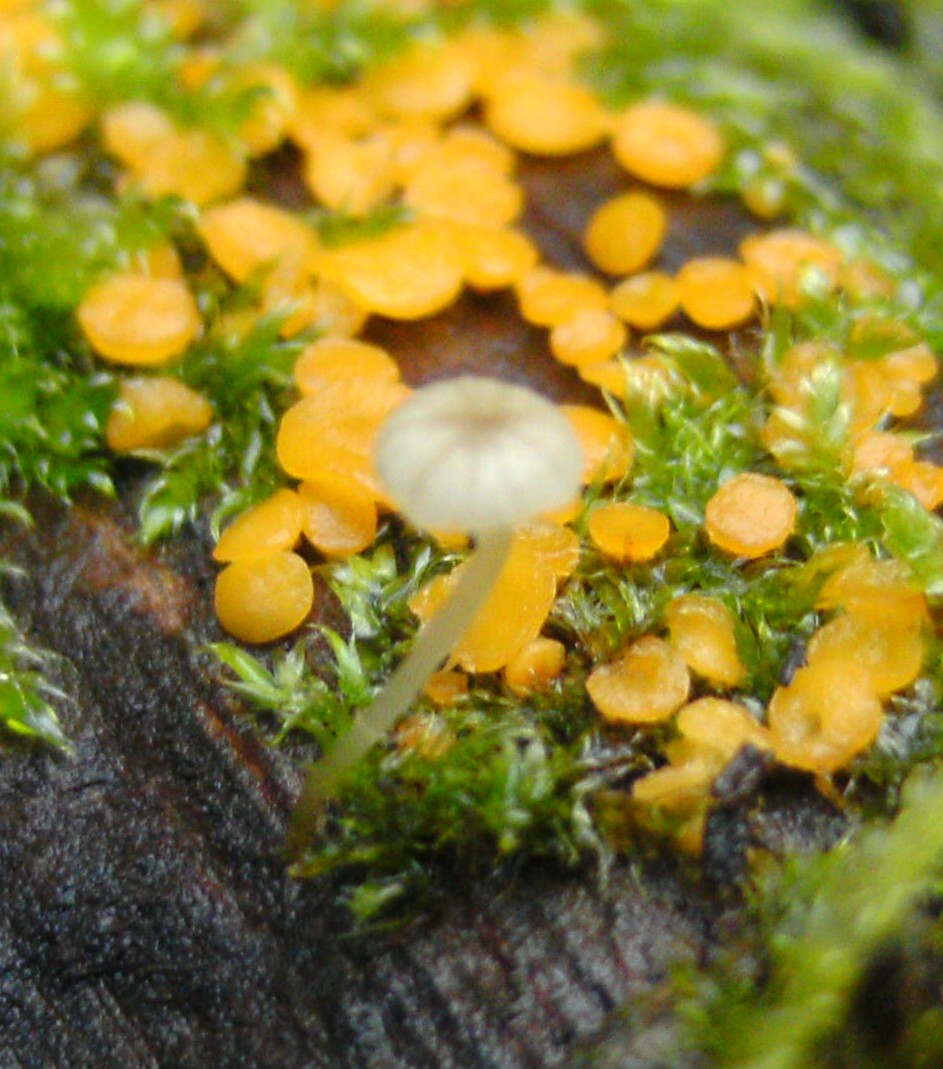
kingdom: Fungi
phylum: Basidiomycota
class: Agaricomycetes
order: Agaricales
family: Porotheleaceae
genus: Phloeomana
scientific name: Phloeomana speirea
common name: kvist-huesvamp
